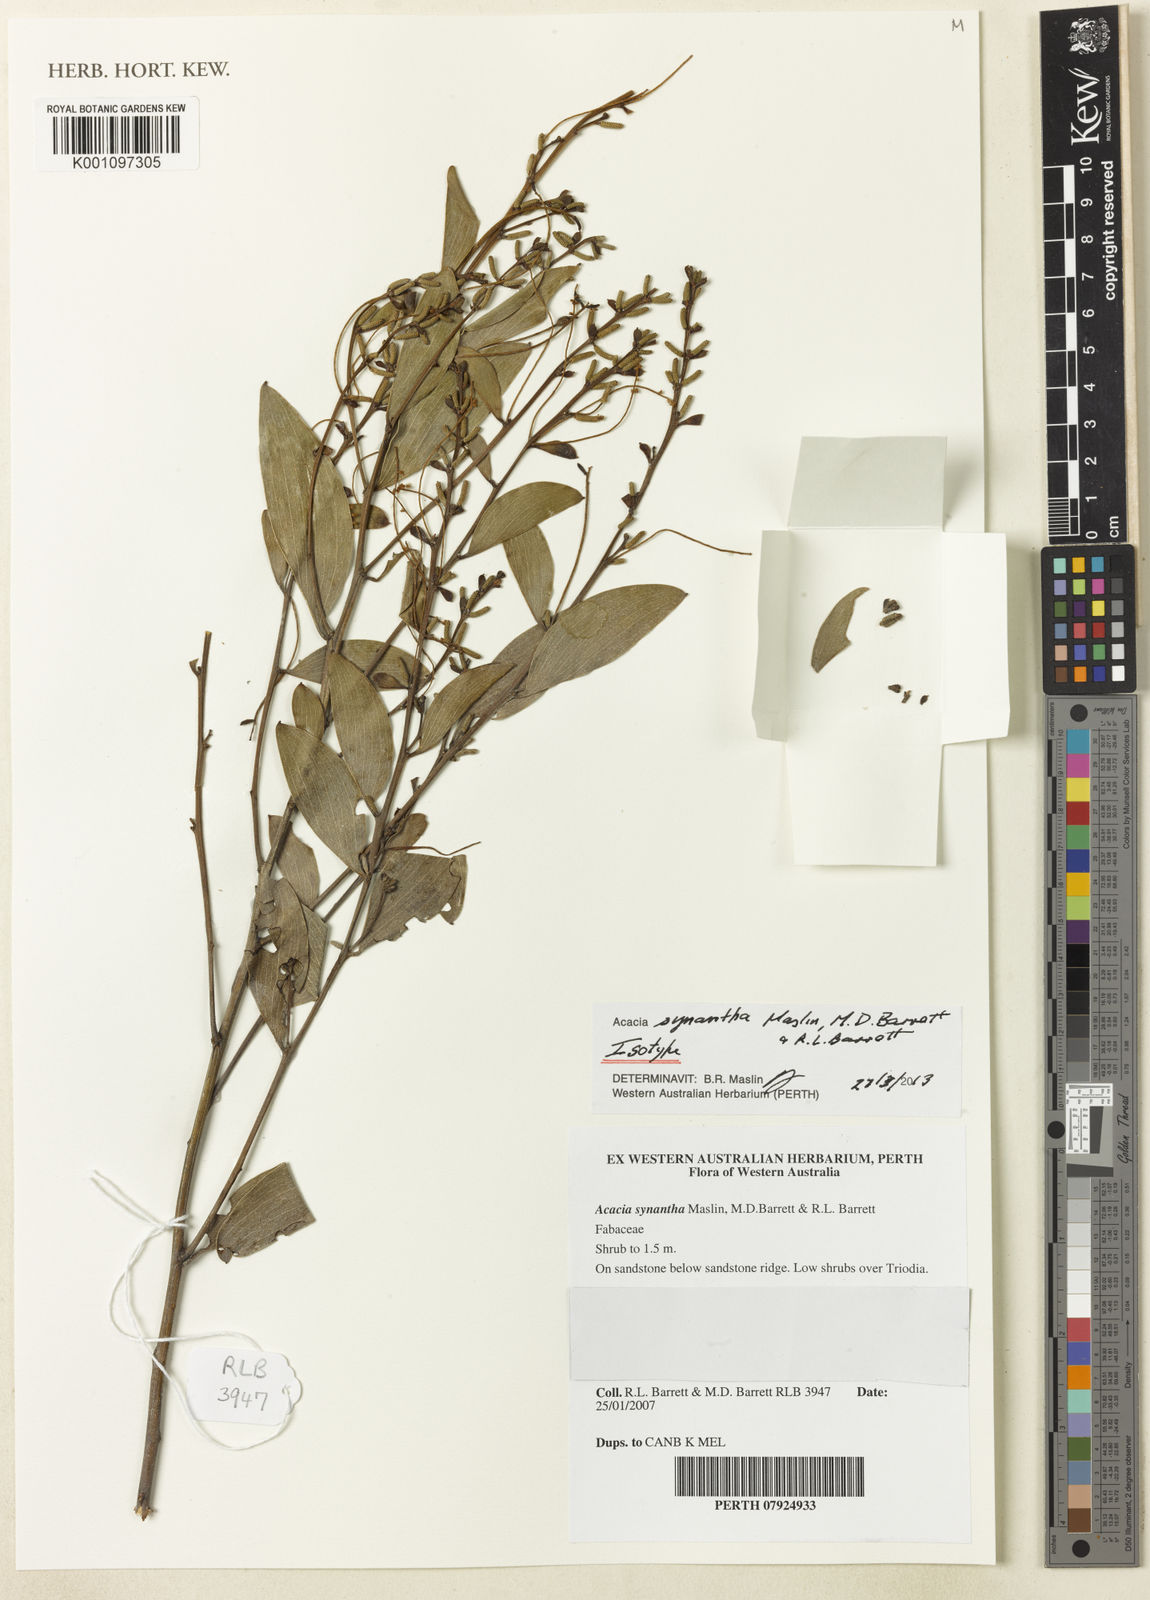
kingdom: Plantae
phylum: Tracheophyta
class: Magnoliopsida
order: Fabales
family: Fabaceae
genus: Acacia
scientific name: Acacia synantha
